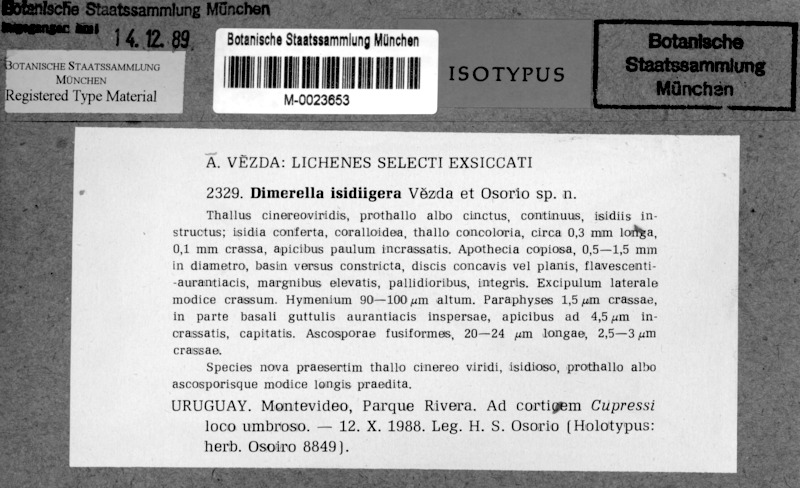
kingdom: Fungi
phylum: Ascomycota
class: Lecanoromycetes
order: Ostropales
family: Coenogoniaceae
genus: Coenogonium
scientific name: Coenogonium isidiigerum
